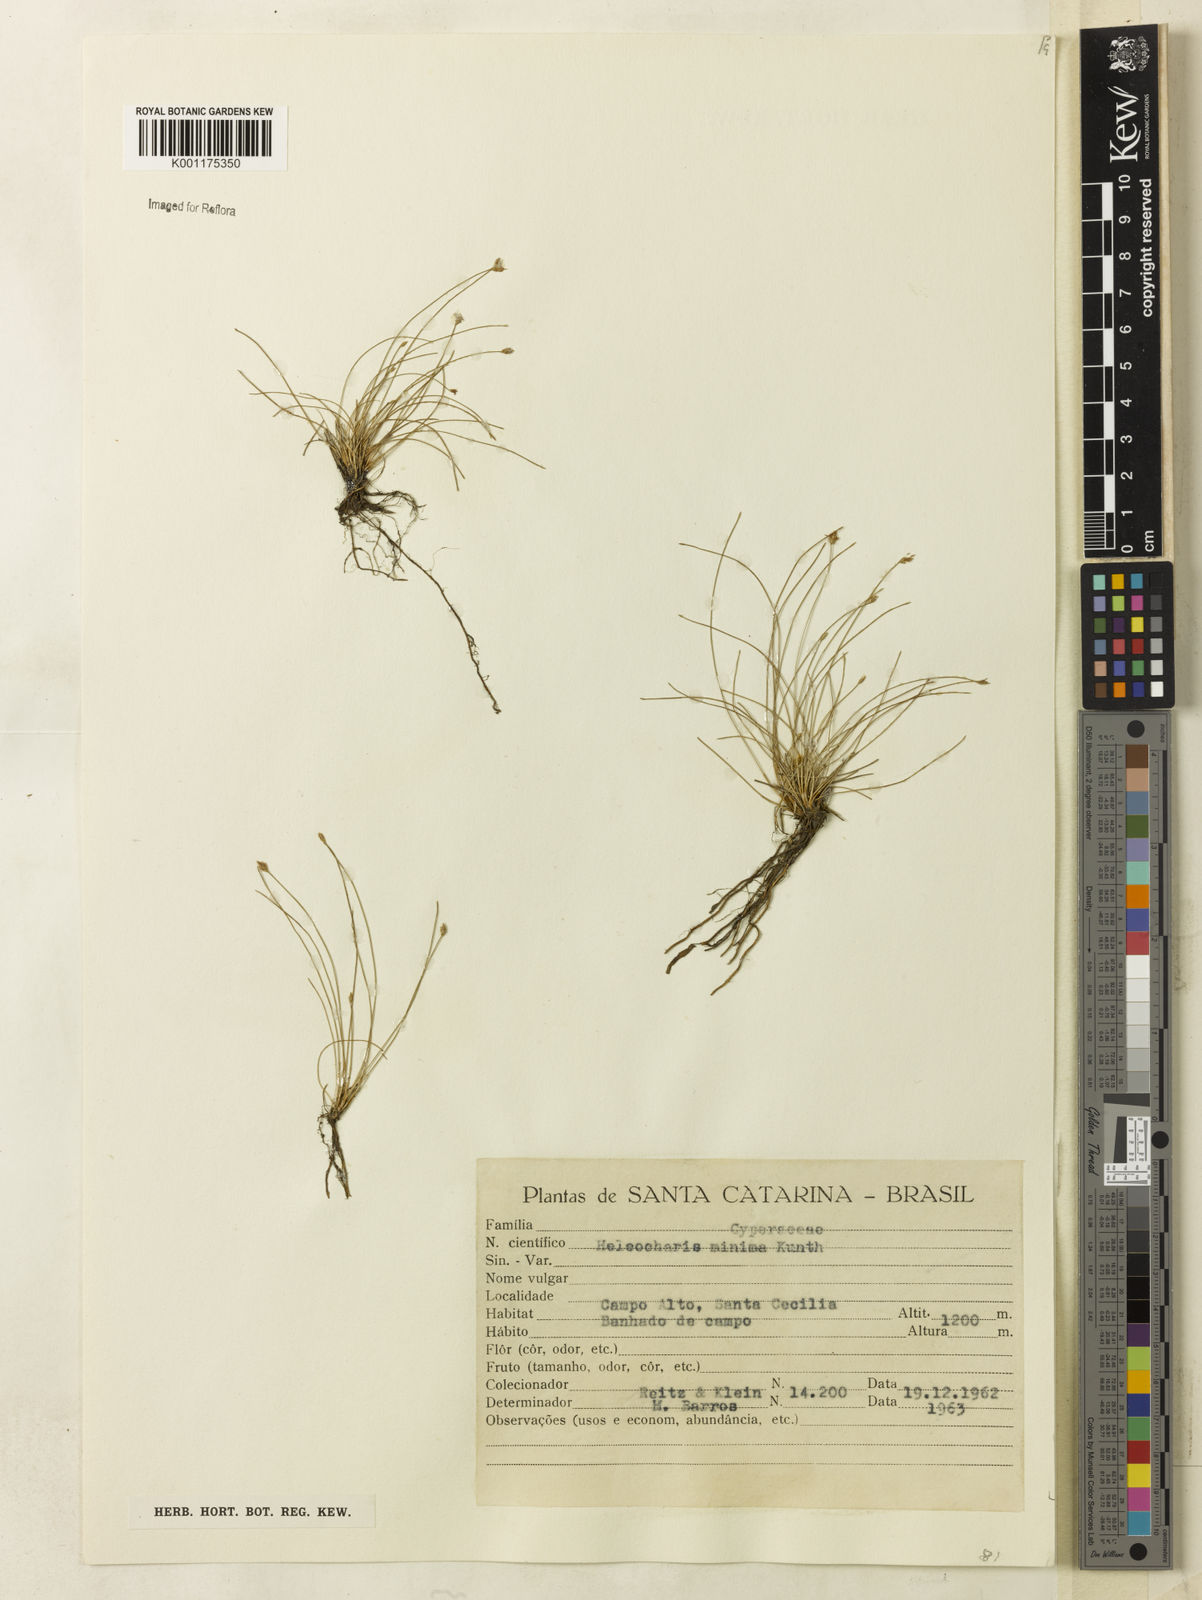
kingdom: Plantae
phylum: Tracheophyta
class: Liliopsida
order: Poales
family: Cyperaceae
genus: Eleocharis
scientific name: Eleocharis minima
